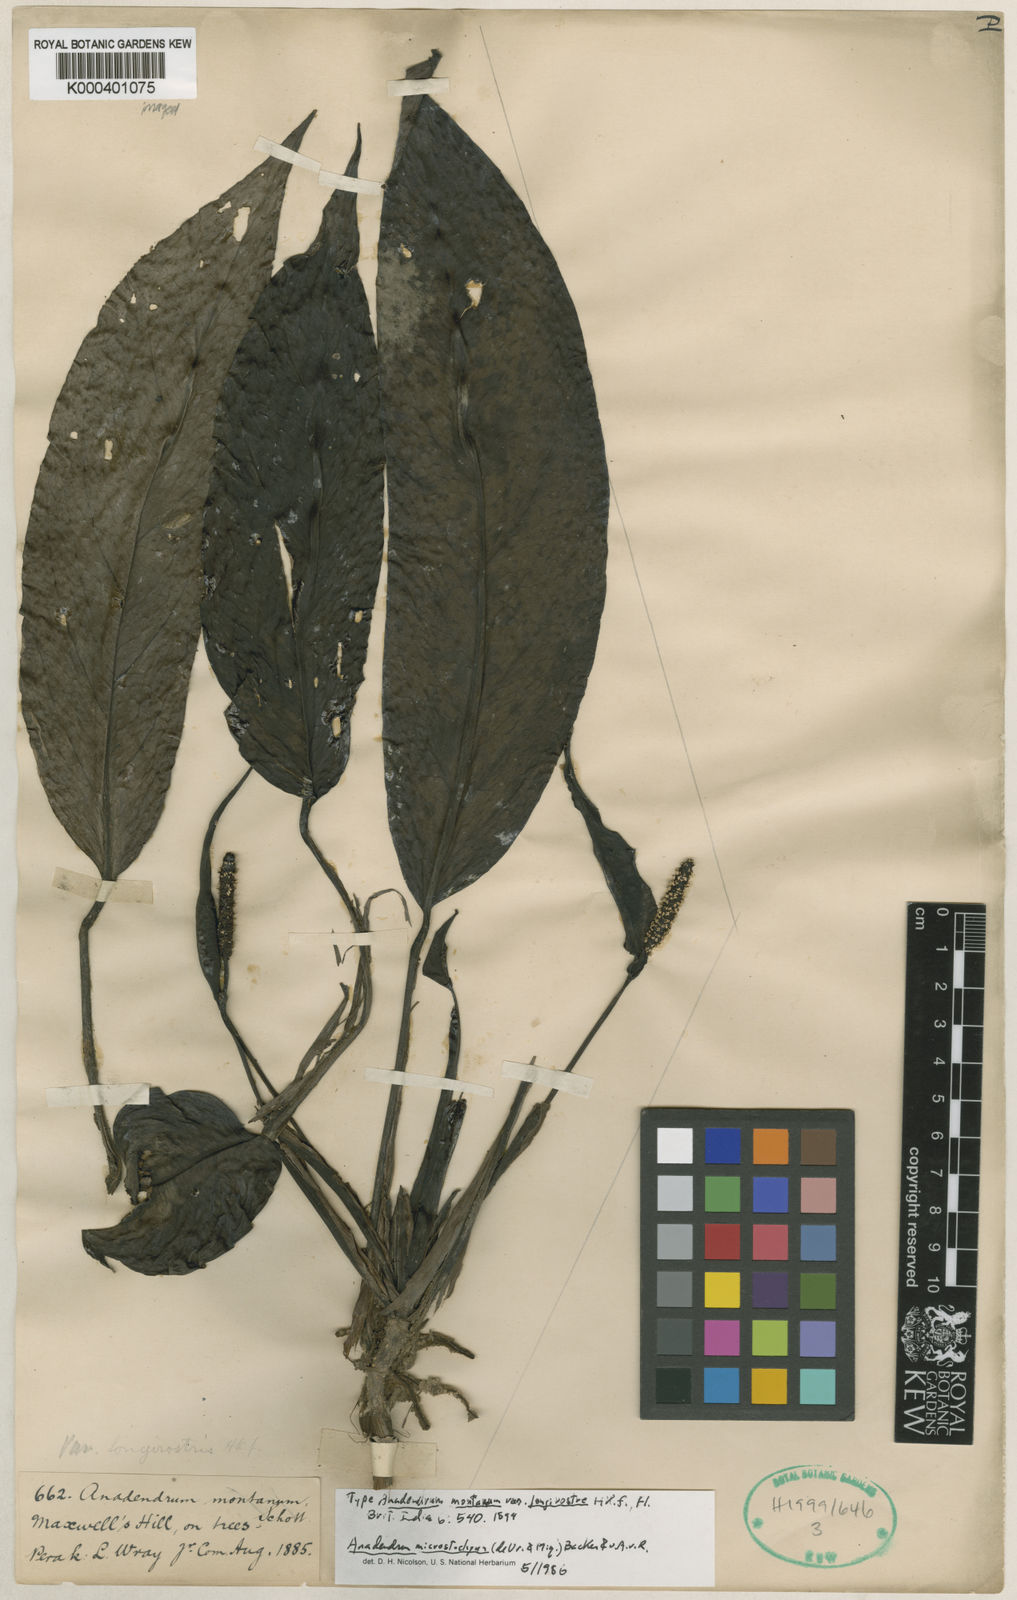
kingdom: Plantae
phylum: Tracheophyta
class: Liliopsida
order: Alismatales
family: Araceae
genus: Anadendrum
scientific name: Anadendrum microstachyum
